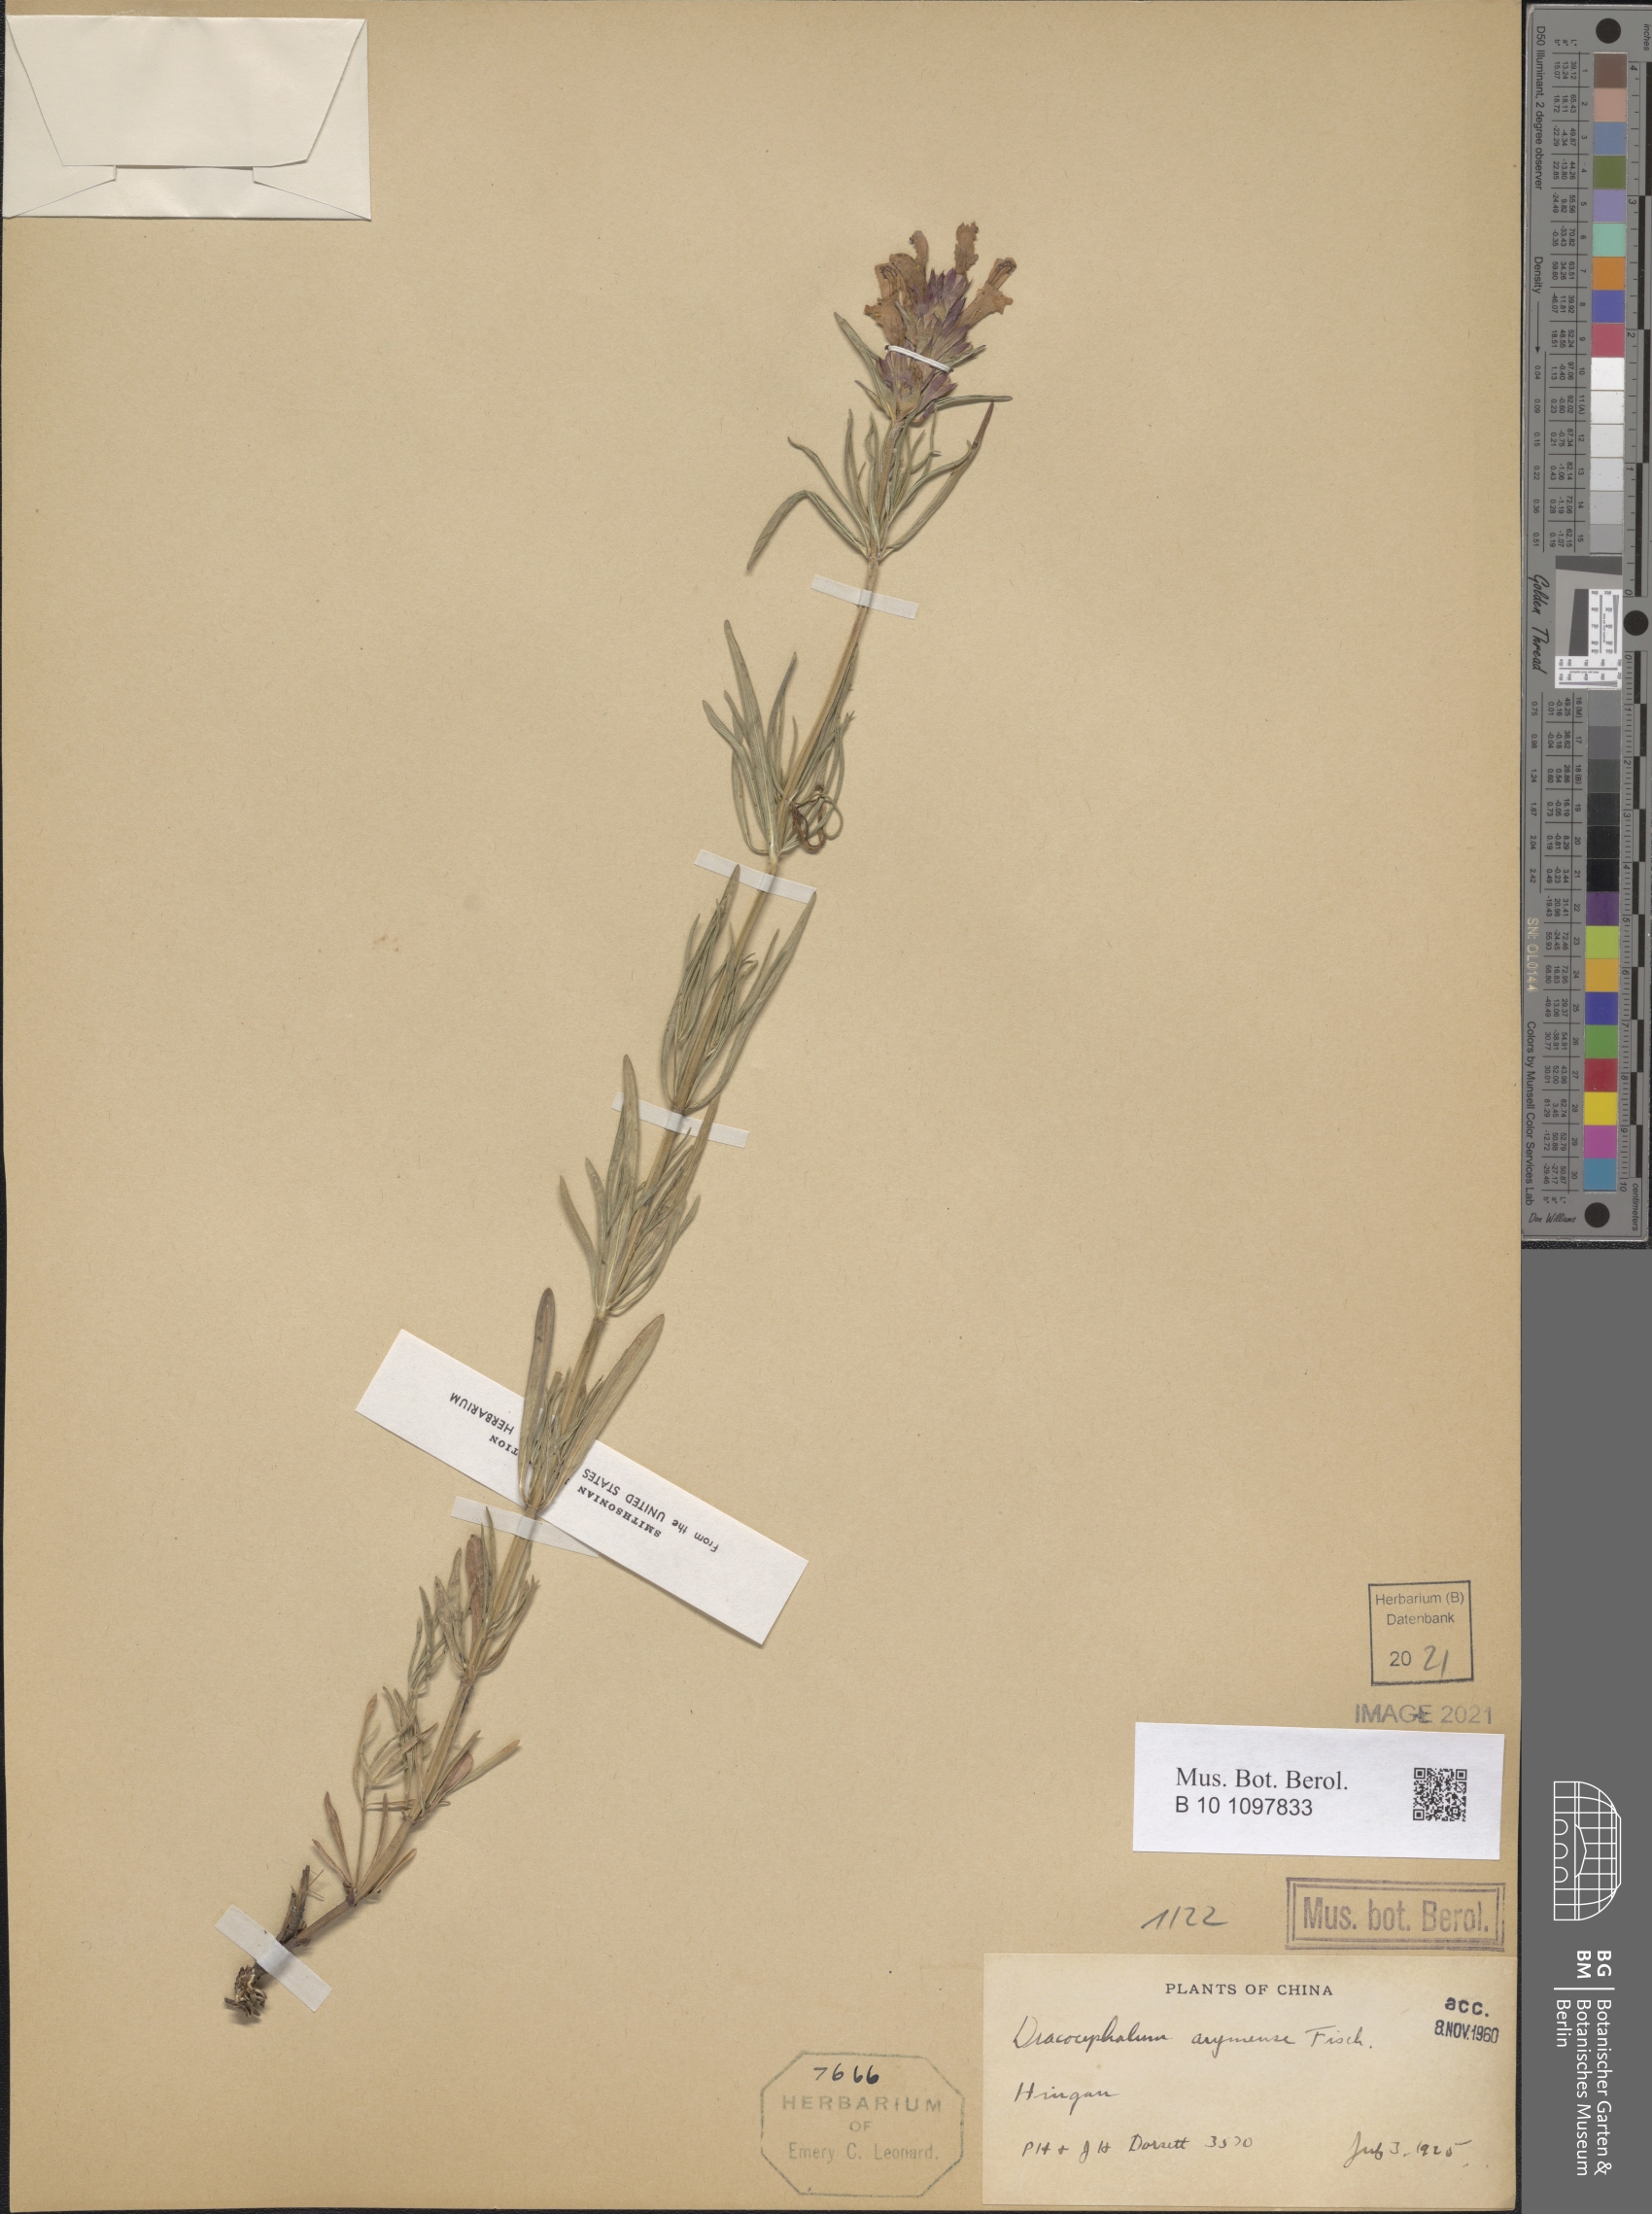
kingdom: Plantae
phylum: Tracheophyta
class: Magnoliopsida
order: Lamiales
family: Lamiaceae
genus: Dracocephalum
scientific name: Dracocephalum argunense
